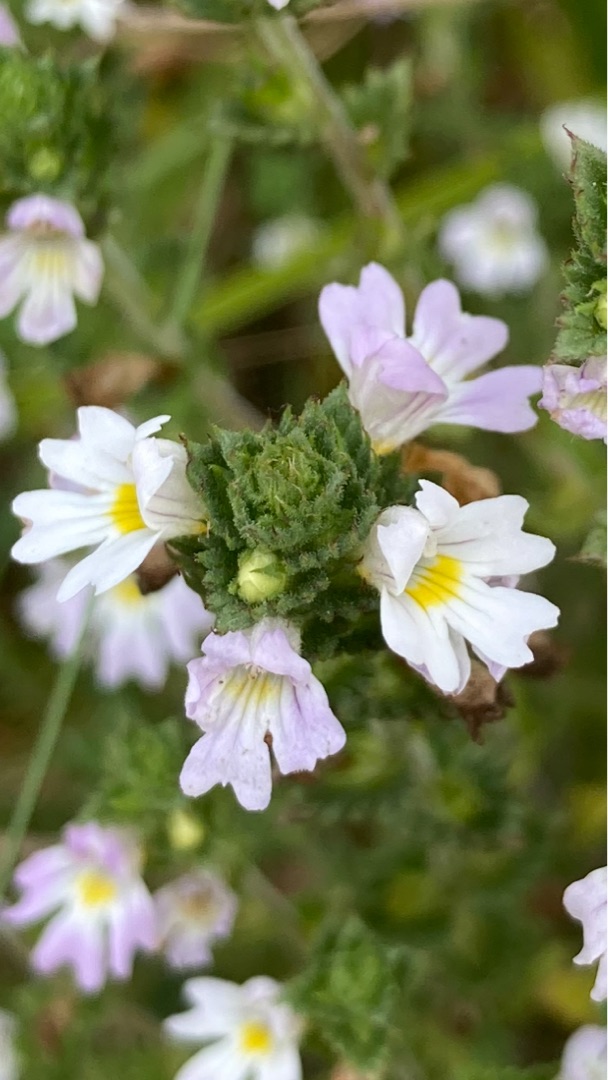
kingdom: Plantae
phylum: Tracheophyta
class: Magnoliopsida
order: Lamiales
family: Orobanchaceae
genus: Euphrasia
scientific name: Euphrasia stricta
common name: Spids øjentrøst
